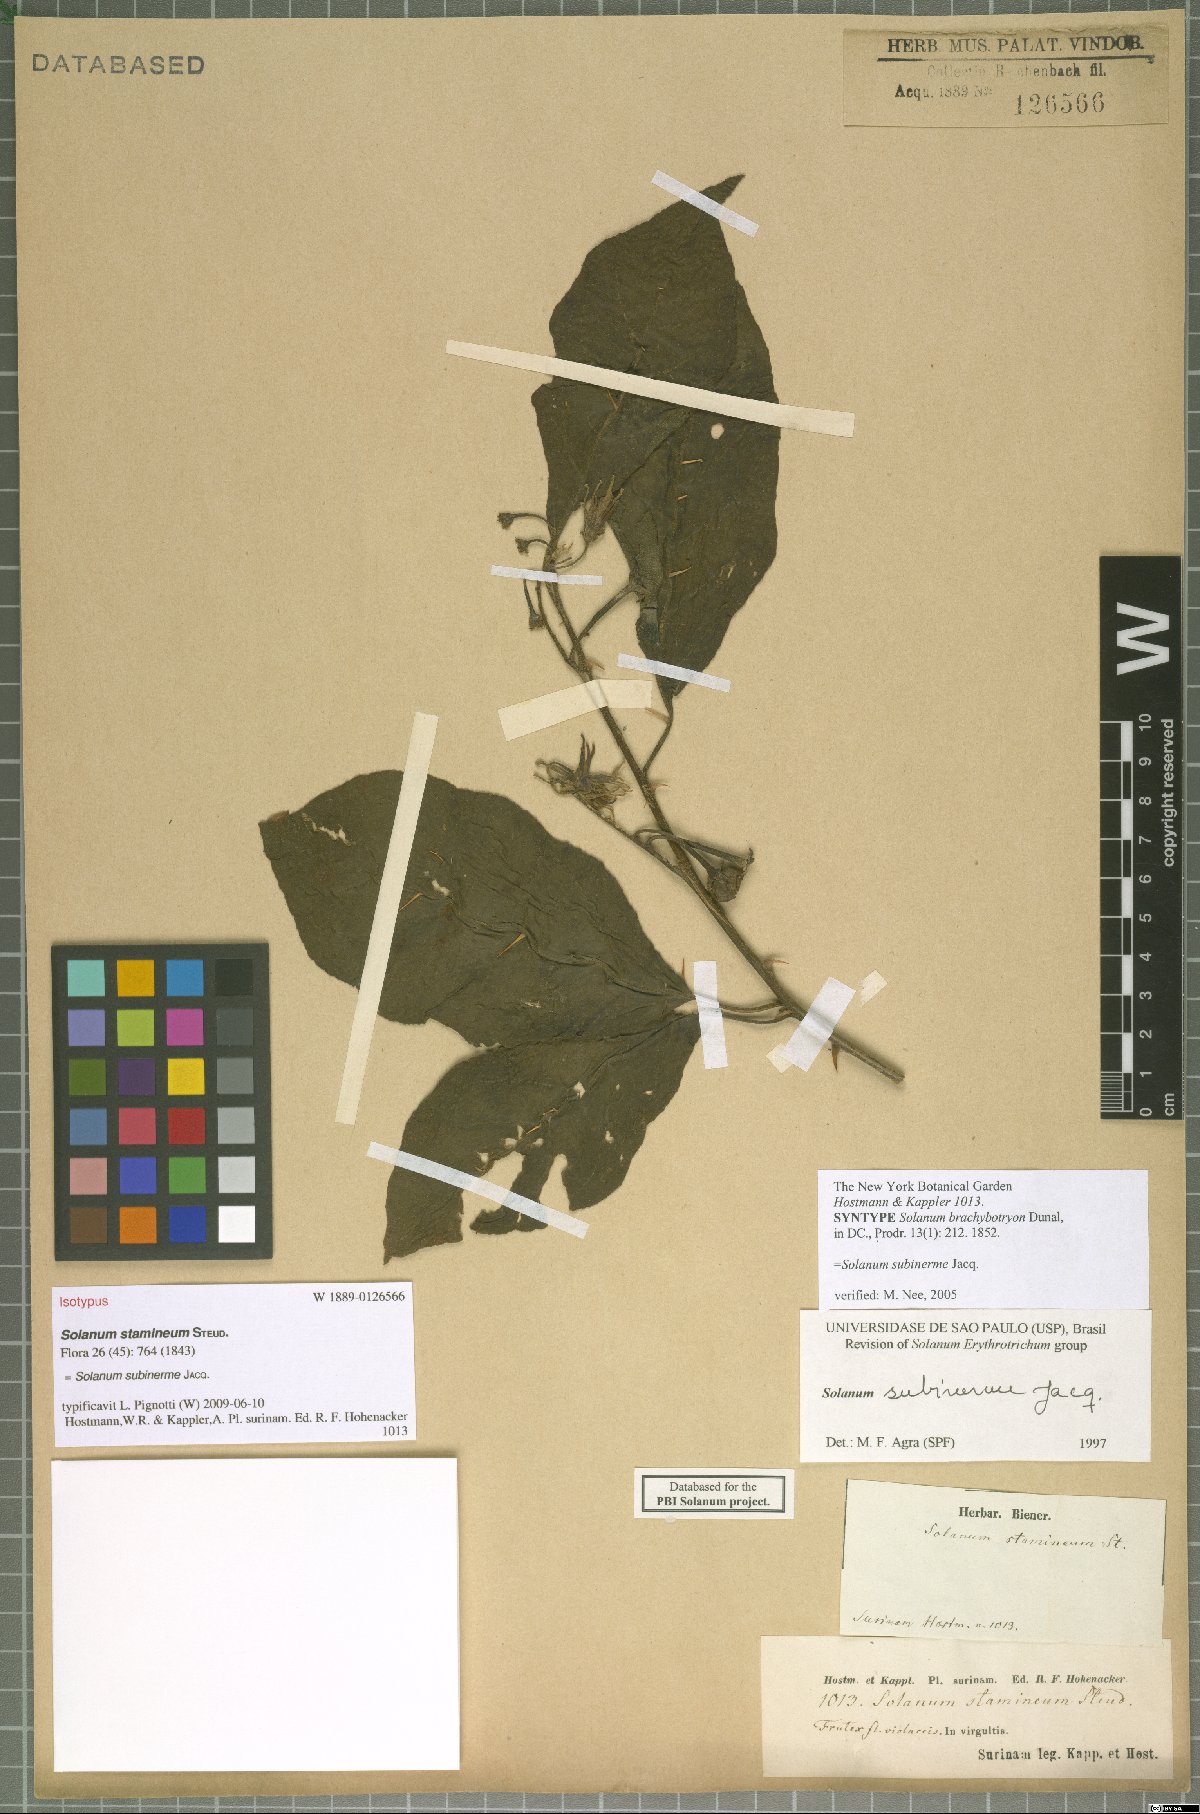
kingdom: Plantae
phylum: Tracheophyta
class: Magnoliopsida
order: Solanales
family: Solanaceae
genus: Solanum
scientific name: Solanum subinerme
